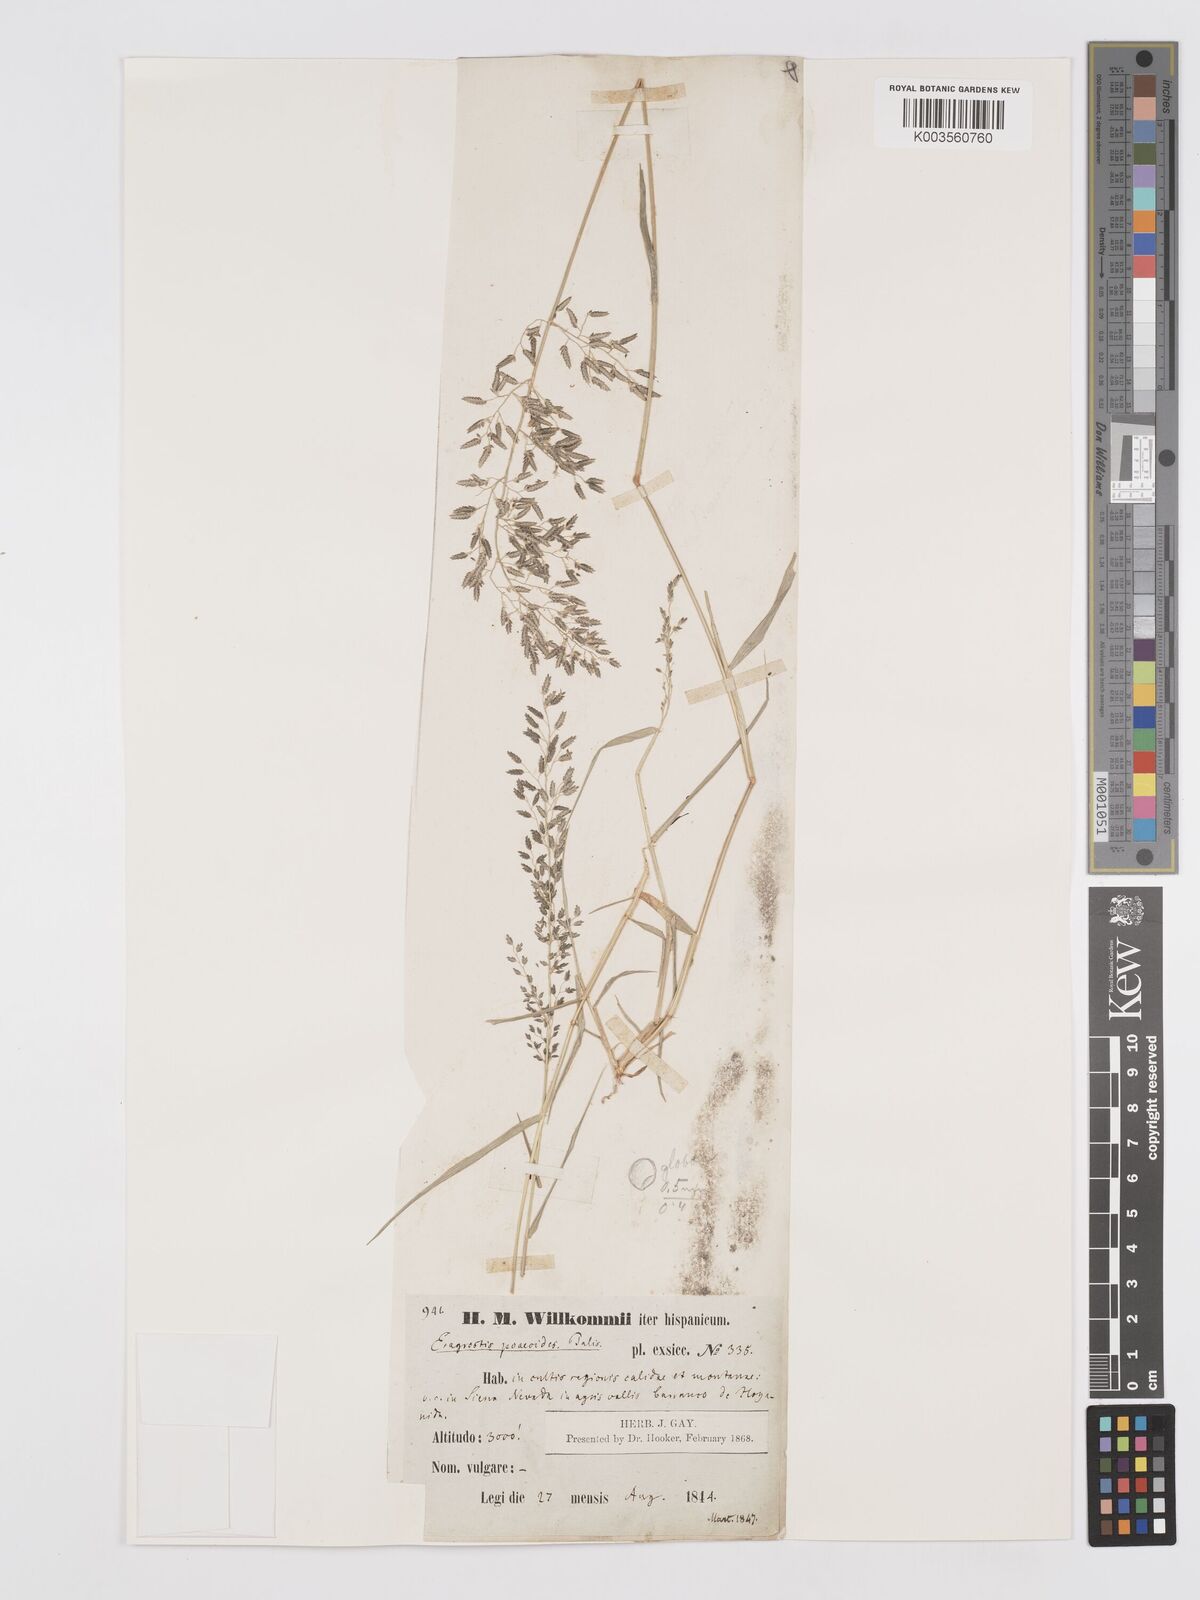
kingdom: Plantae
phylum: Tracheophyta
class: Liliopsida
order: Poales
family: Poaceae
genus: Eragrostis
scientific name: Eragrostis minor
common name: Small love-grass
